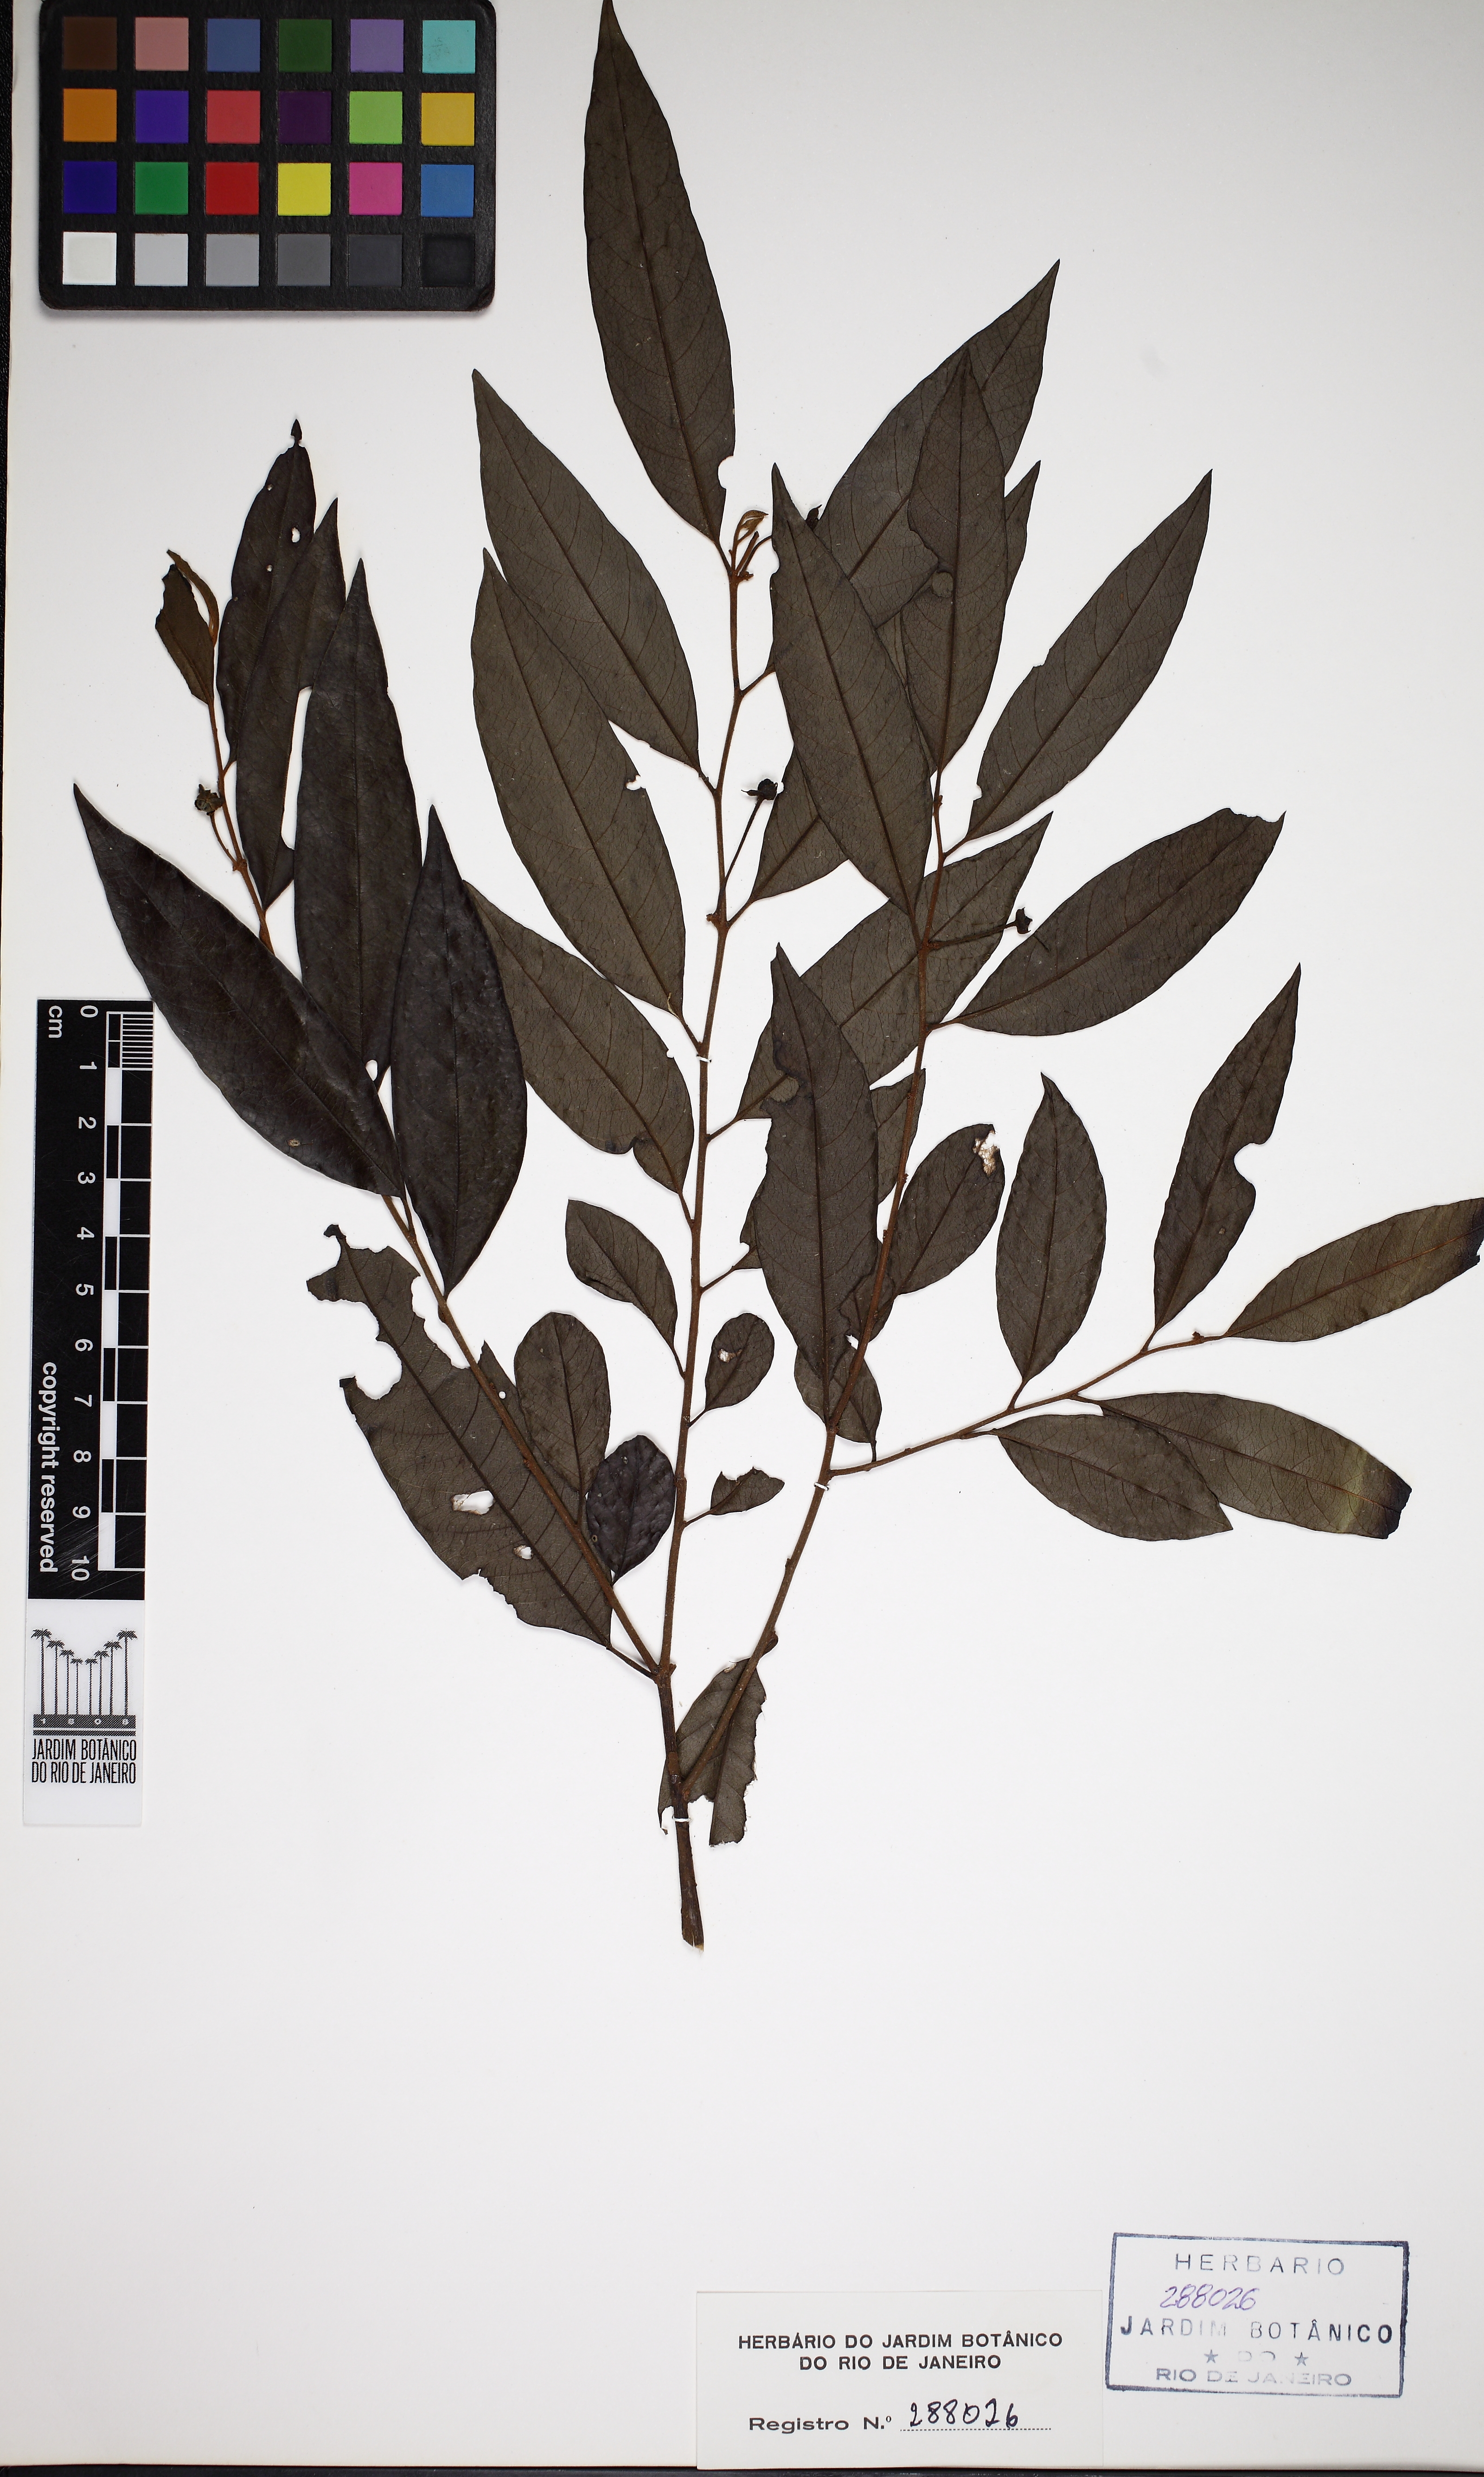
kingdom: Plantae
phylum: Tracheophyta
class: Magnoliopsida
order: Magnoliales
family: Annonaceae
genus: Annona
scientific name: Annona xylopiifolia
